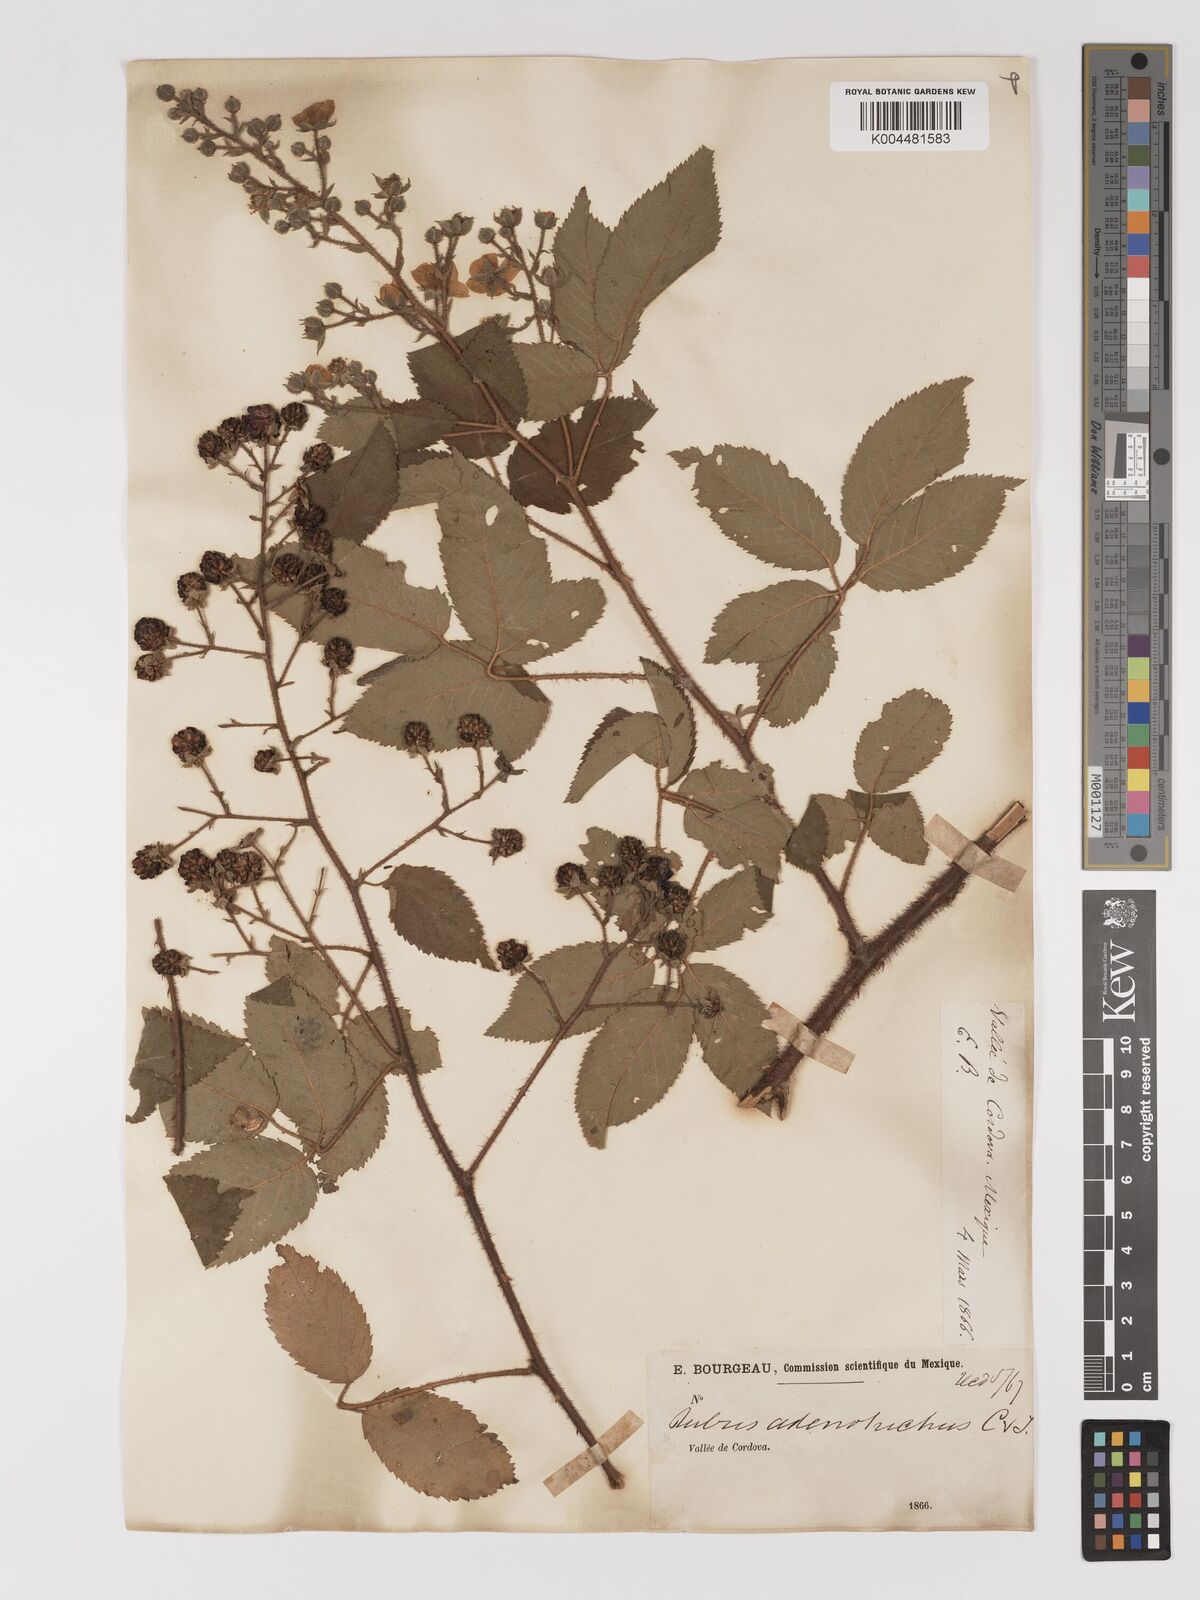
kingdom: Plantae
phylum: Tracheophyta
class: Magnoliopsida
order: Rosales
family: Rosaceae
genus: Rubus
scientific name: Rubus adenotrichos
